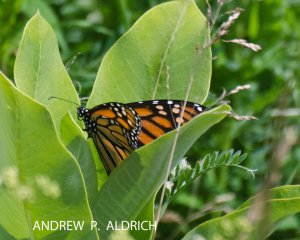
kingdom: Animalia
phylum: Arthropoda
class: Insecta
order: Lepidoptera
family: Nymphalidae
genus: Danaus
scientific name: Danaus plexippus
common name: Monarch
